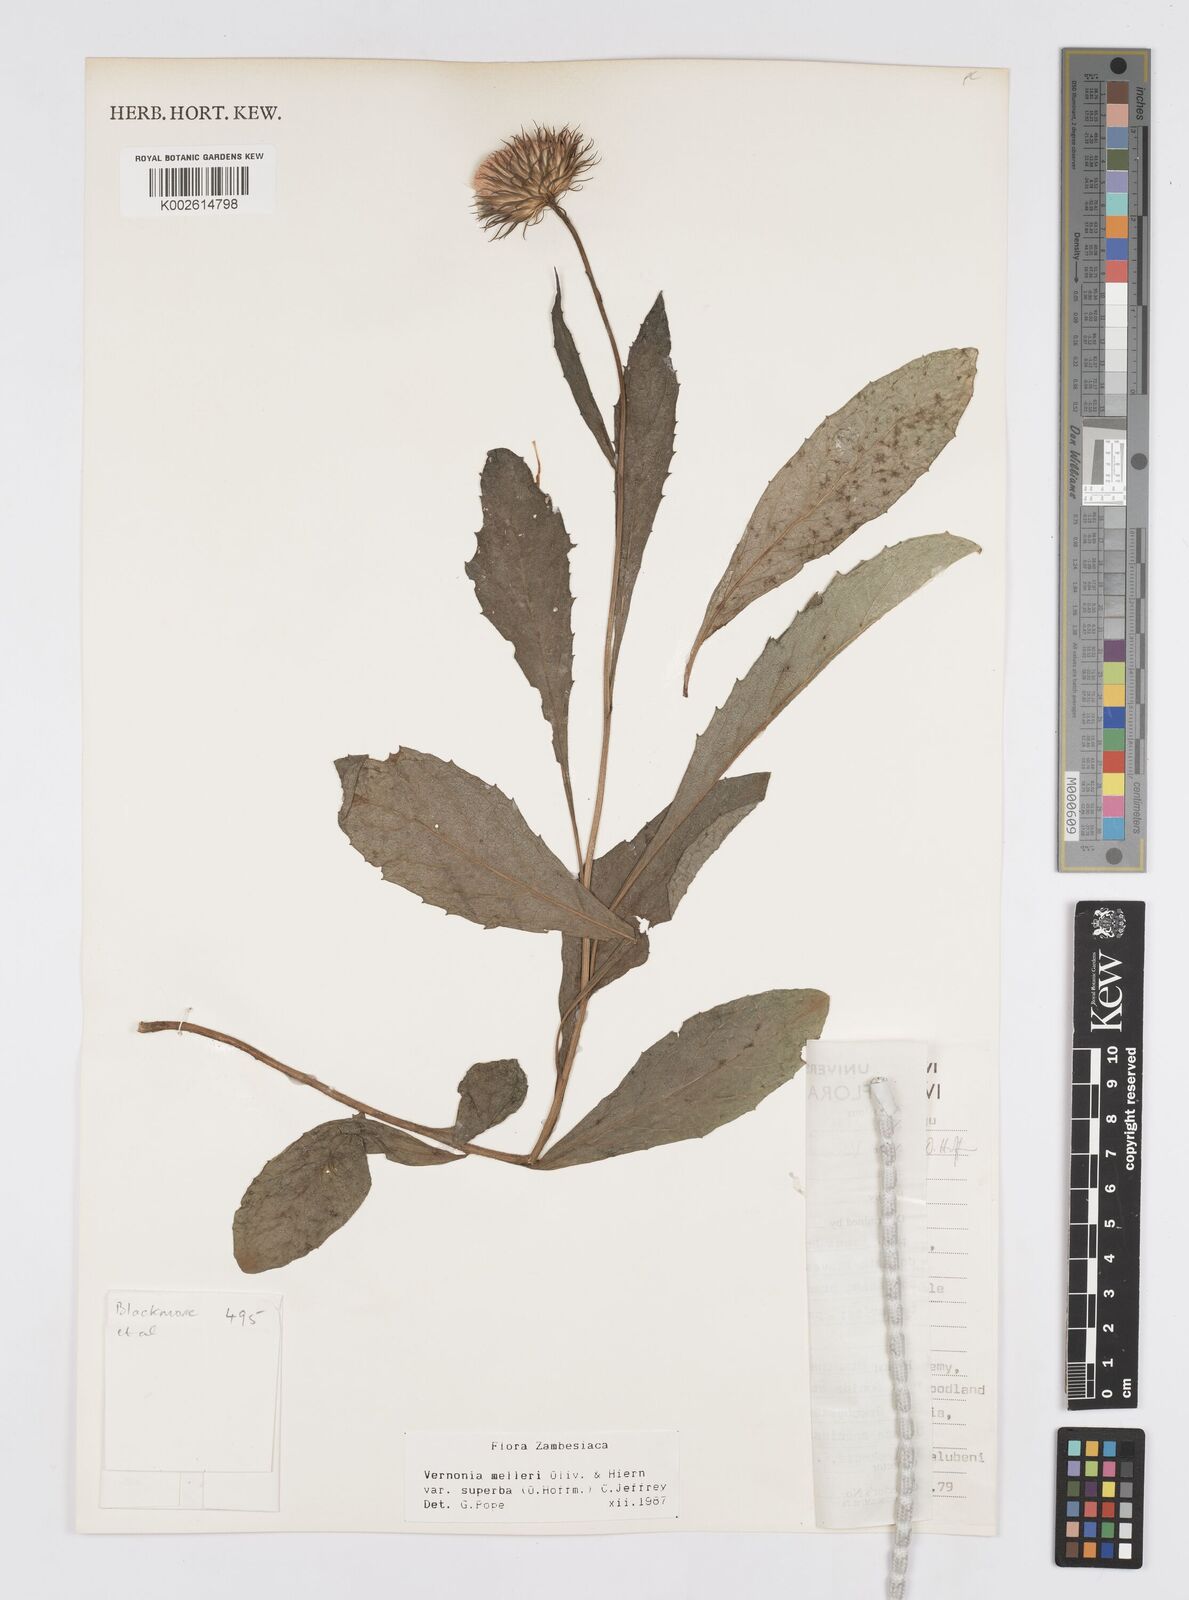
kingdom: Plantae
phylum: Tracheophyta
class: Magnoliopsida
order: Asterales
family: Asteraceae
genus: Linzia
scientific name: Linzia melleri
